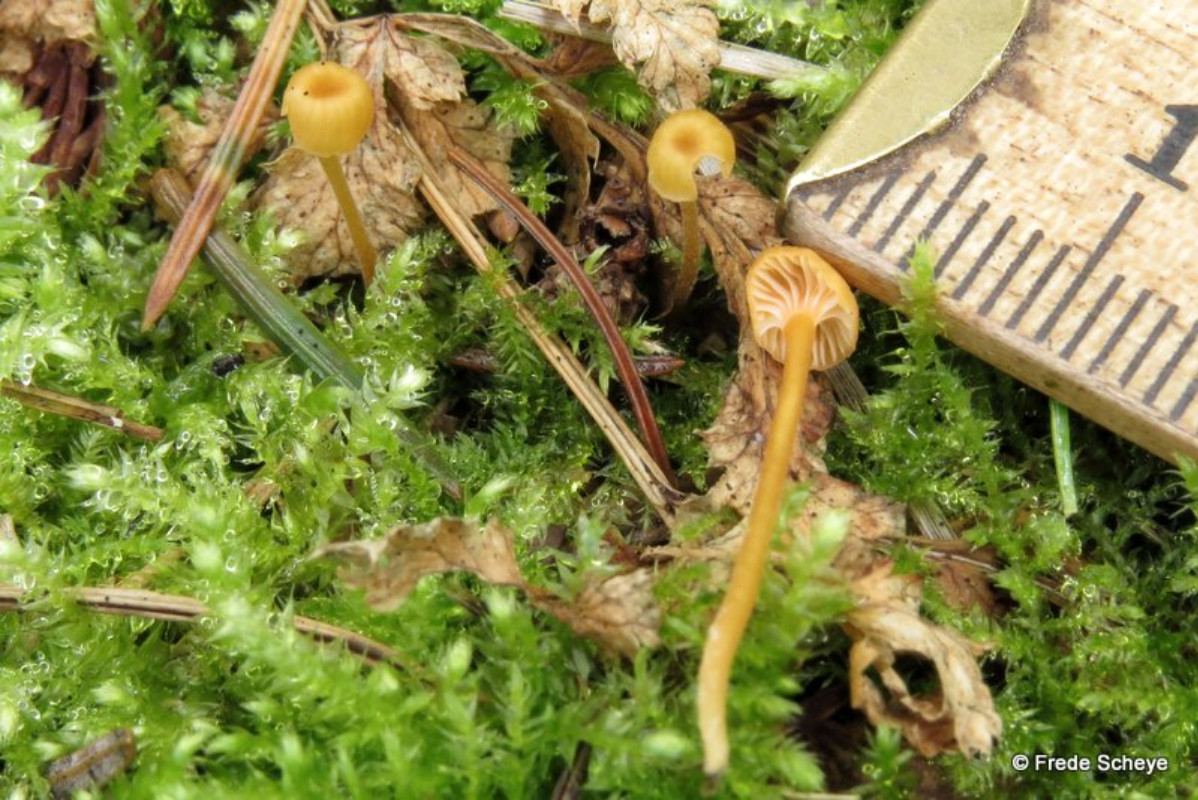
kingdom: Fungi
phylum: Basidiomycota
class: Agaricomycetes
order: Hymenochaetales
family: Rickenellaceae
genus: Rickenella
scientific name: Rickenella fibula
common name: orange mosnavlehat
